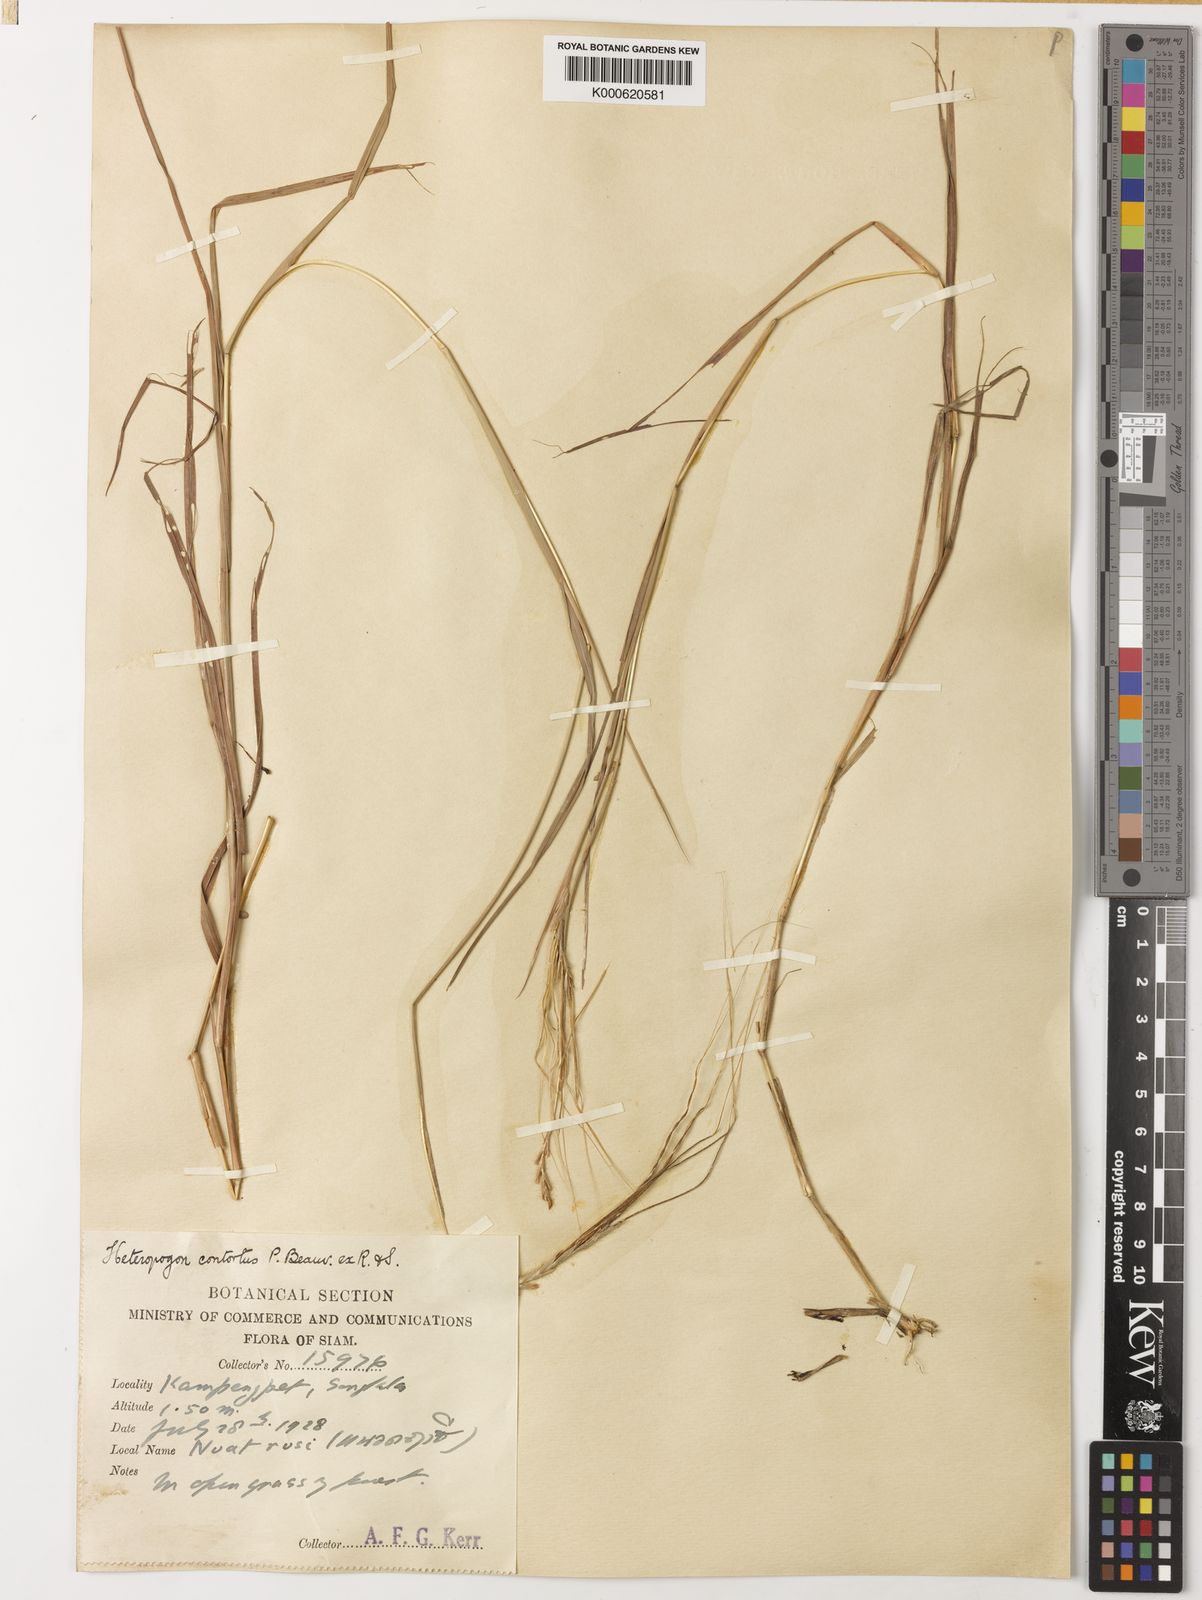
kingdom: Plantae
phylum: Tracheophyta
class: Liliopsida
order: Poales
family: Poaceae
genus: Heteropogon
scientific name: Heteropogon contortus
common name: Tanglehead
